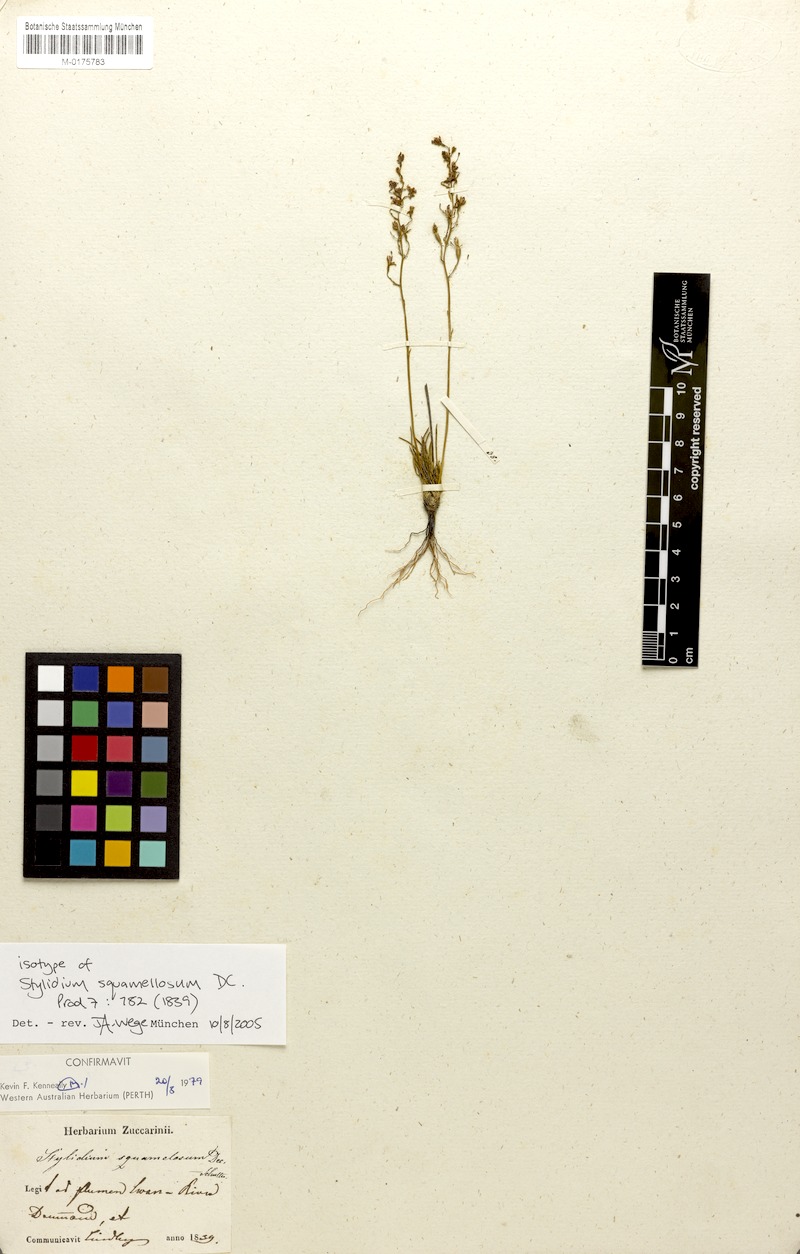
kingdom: Plantae
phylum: Tracheophyta
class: Magnoliopsida
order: Asterales
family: Stylidiaceae
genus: Stylidium
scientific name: Stylidium squamellosum
